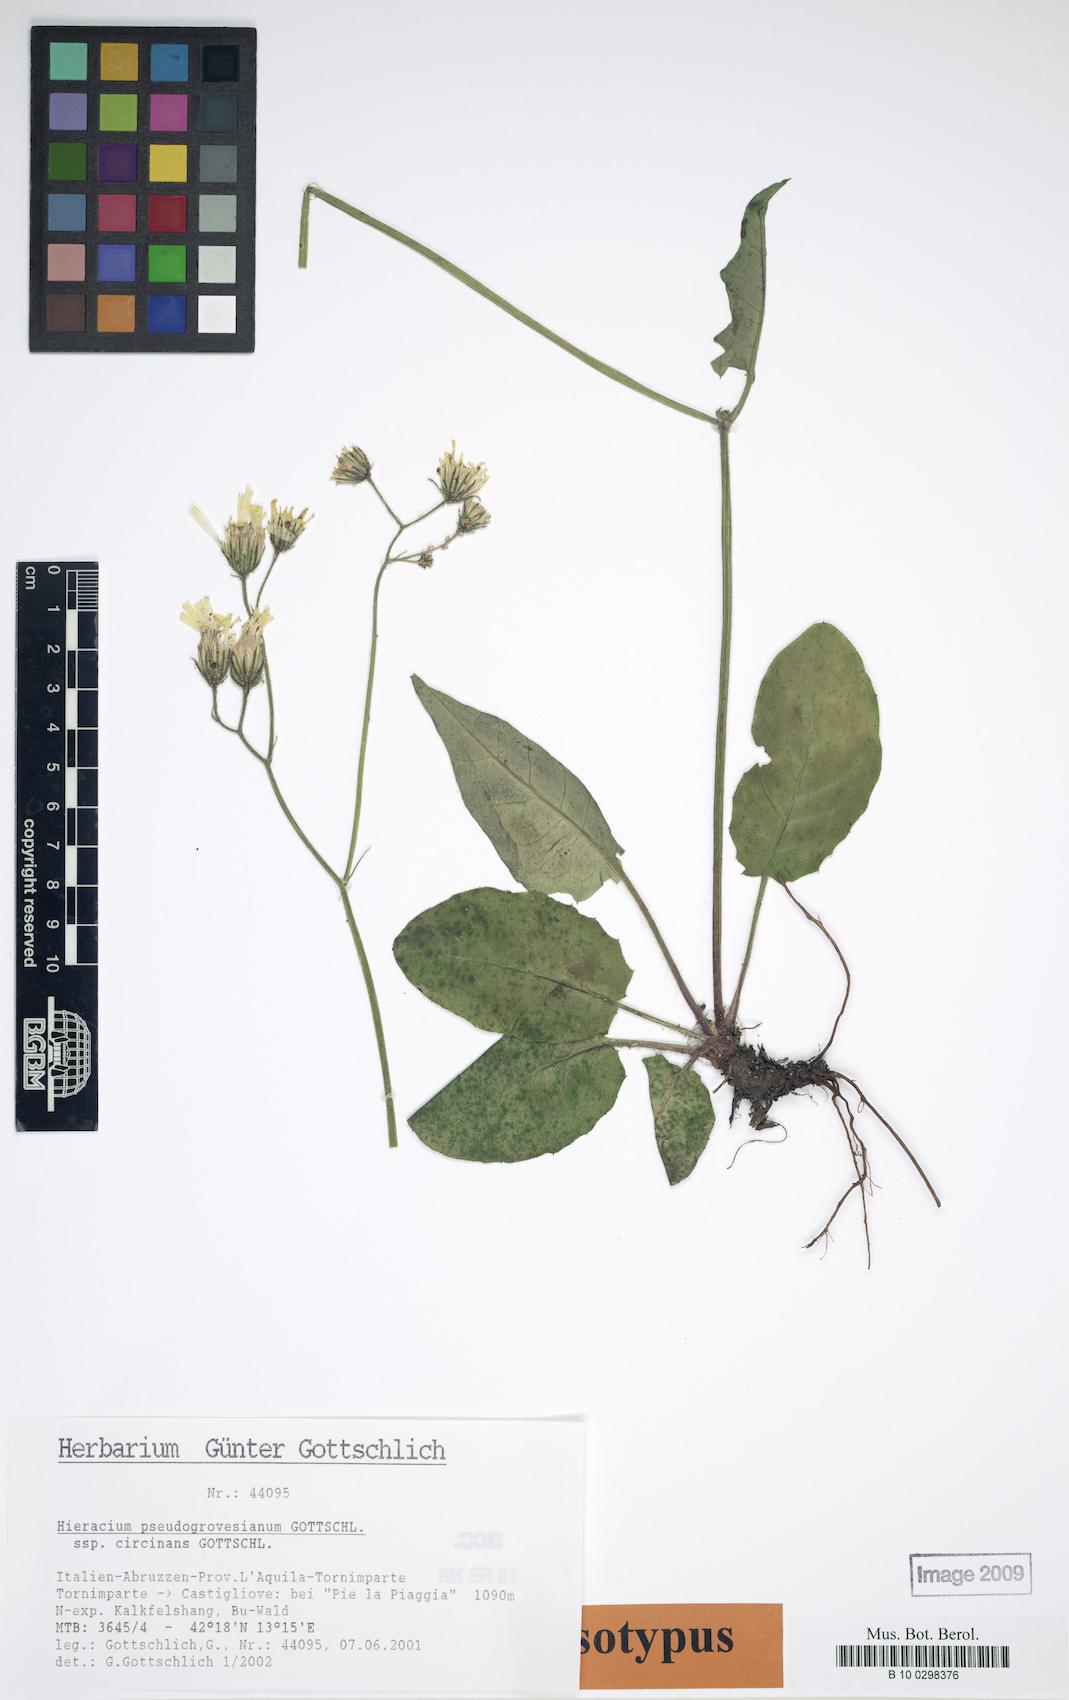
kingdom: Plantae
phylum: Tracheophyta
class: Magnoliopsida
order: Asterales
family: Asteraceae
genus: Hieracium
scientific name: Hieracium pseudogrovesianum
